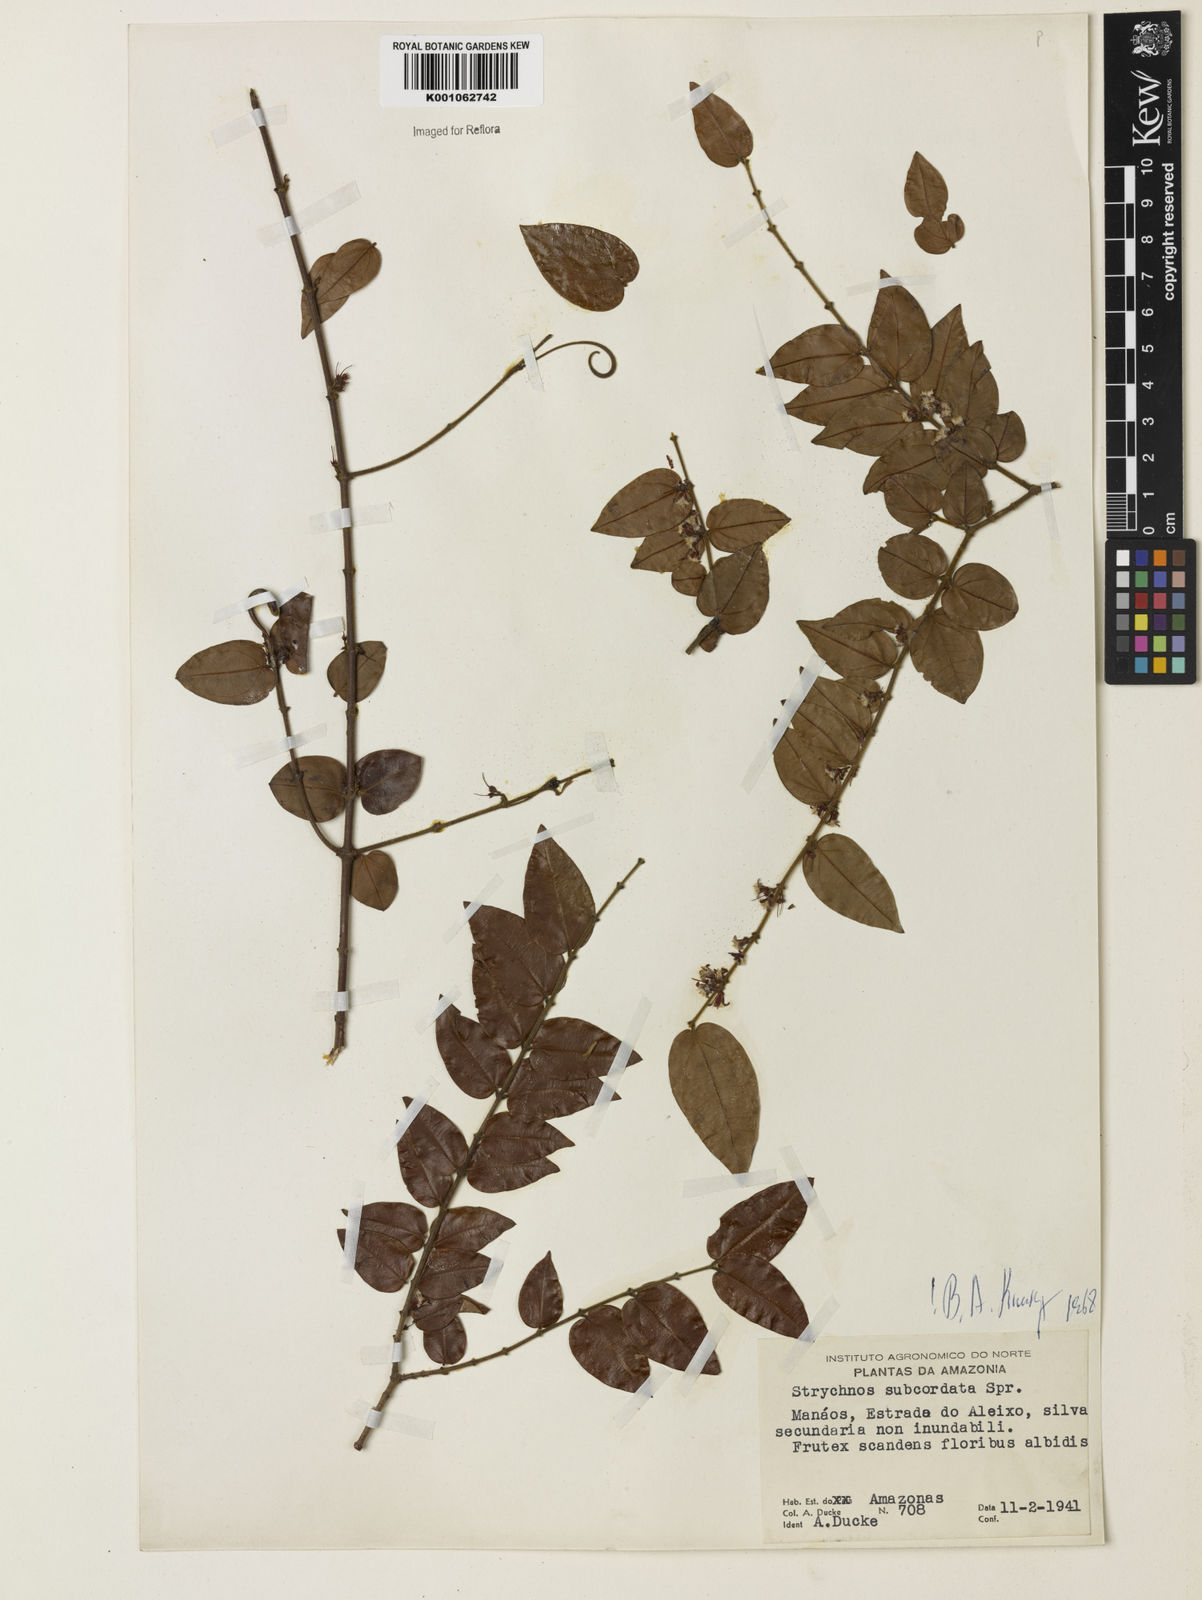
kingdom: Plantae
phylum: Tracheophyta
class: Magnoliopsida
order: Gentianales
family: Loganiaceae
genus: Strychnos
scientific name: Strychnos subcordata
